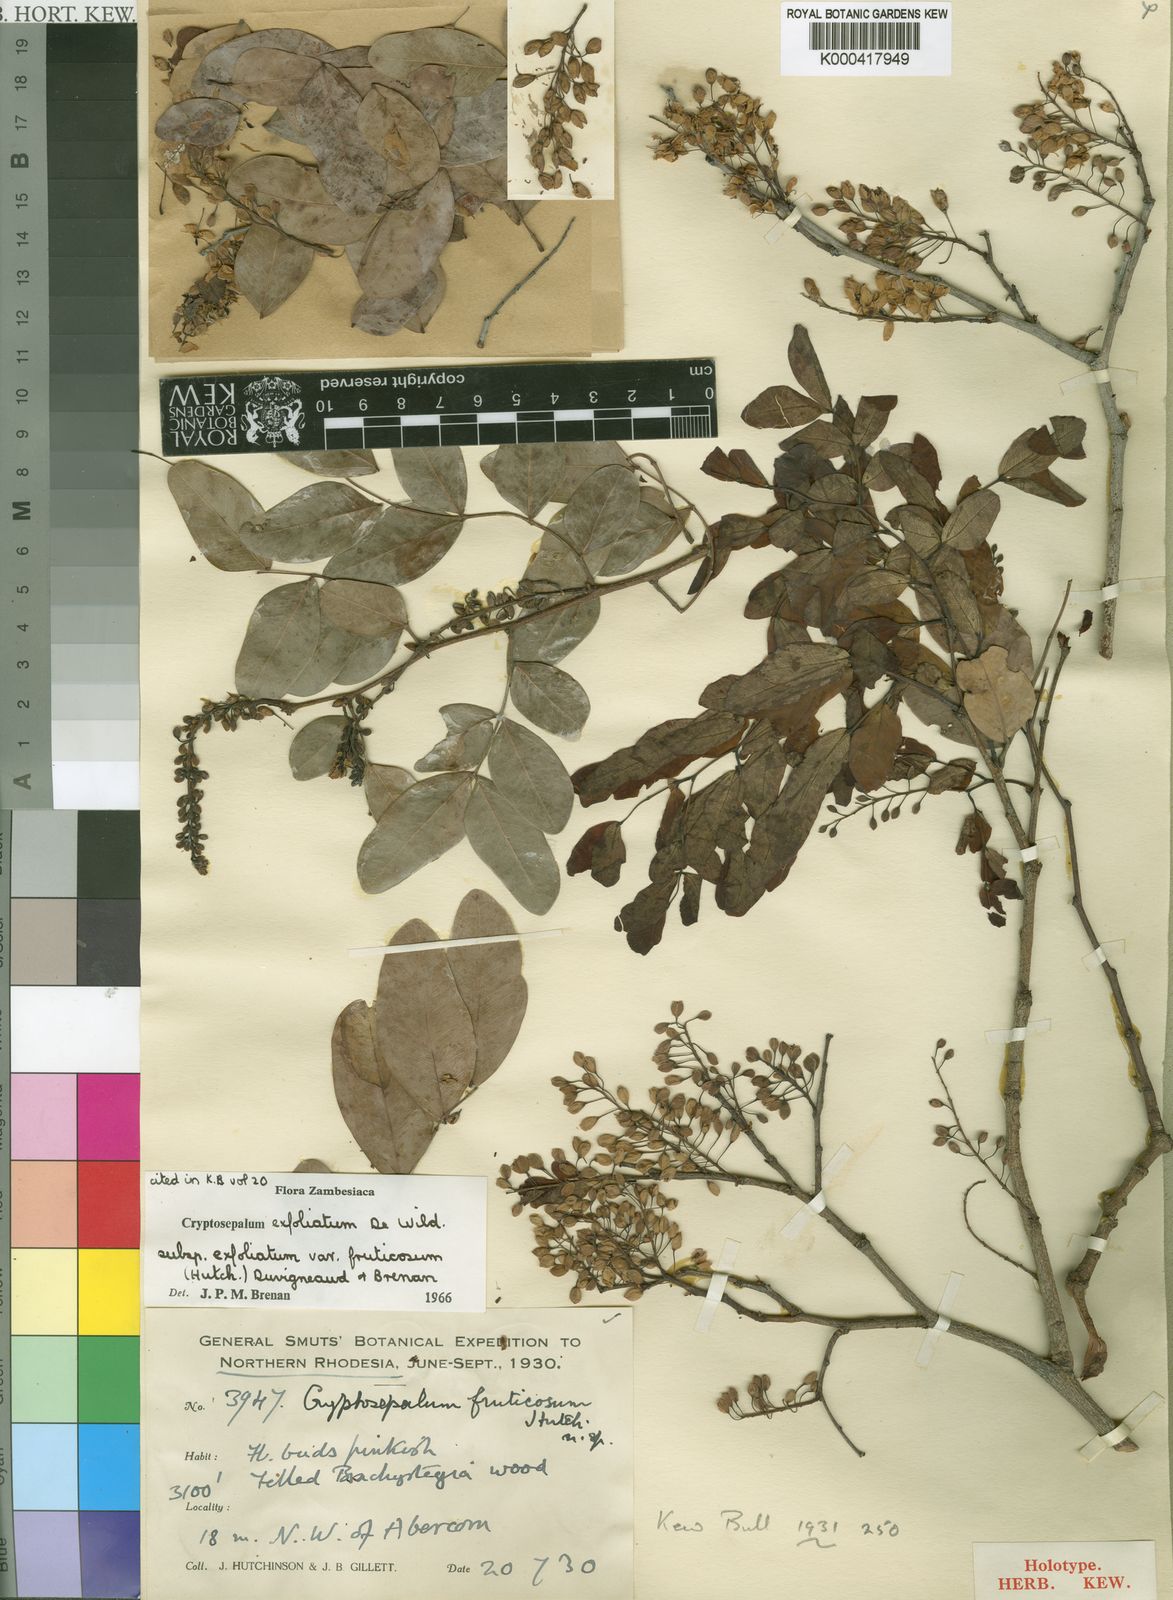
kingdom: Plantae
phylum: Tracheophyta
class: Magnoliopsida
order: Fabales
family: Fabaceae
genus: Cryptosepalum
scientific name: Cryptosepalum exfoliatum
